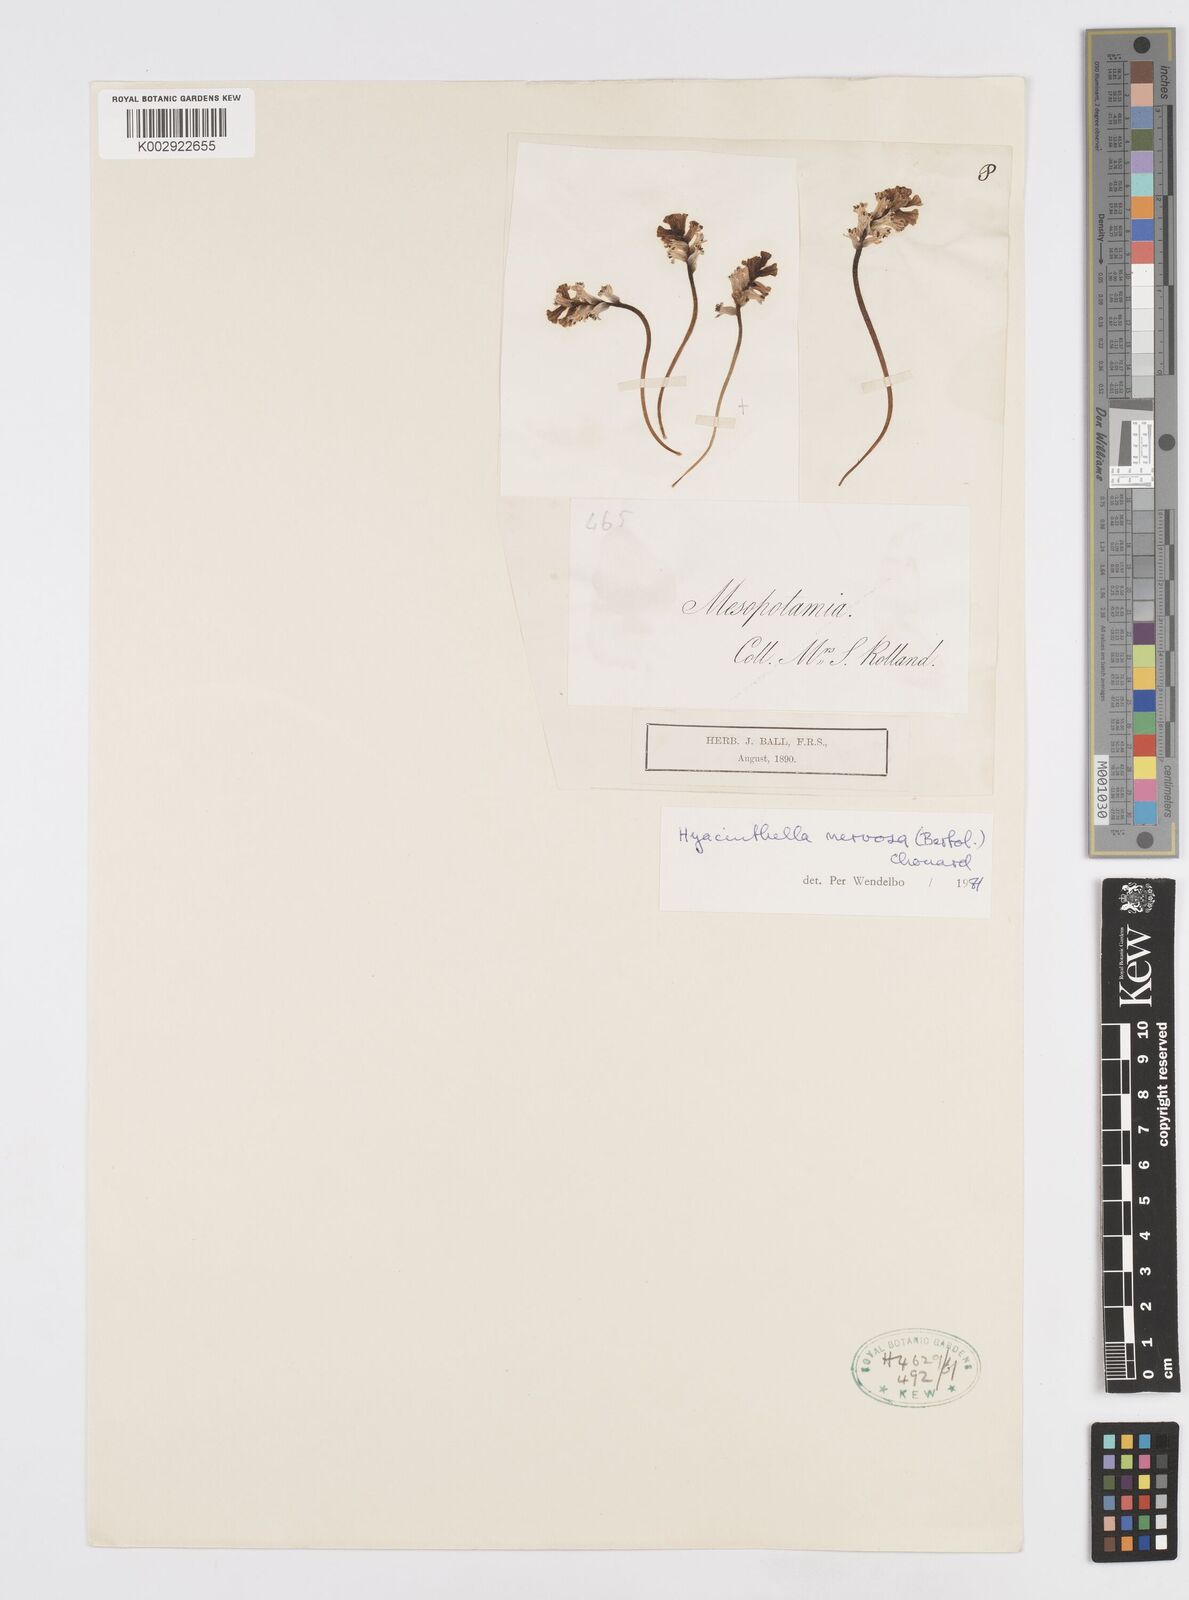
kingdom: Plantae
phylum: Tracheophyta
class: Liliopsida
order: Asparagales
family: Asparagaceae
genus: Hyacinthella
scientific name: Hyacinthella nervosa
